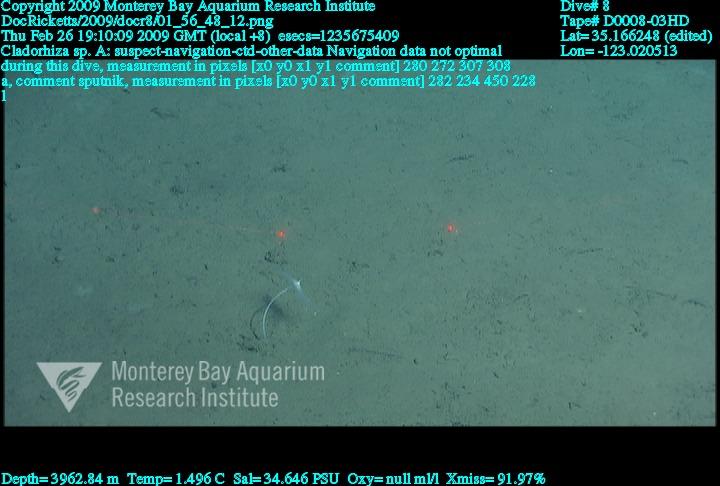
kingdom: Animalia
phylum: Porifera
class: Demospongiae
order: Poecilosclerida
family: Cladorhizidae
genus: Cladorhiza
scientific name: Cladorhiza
